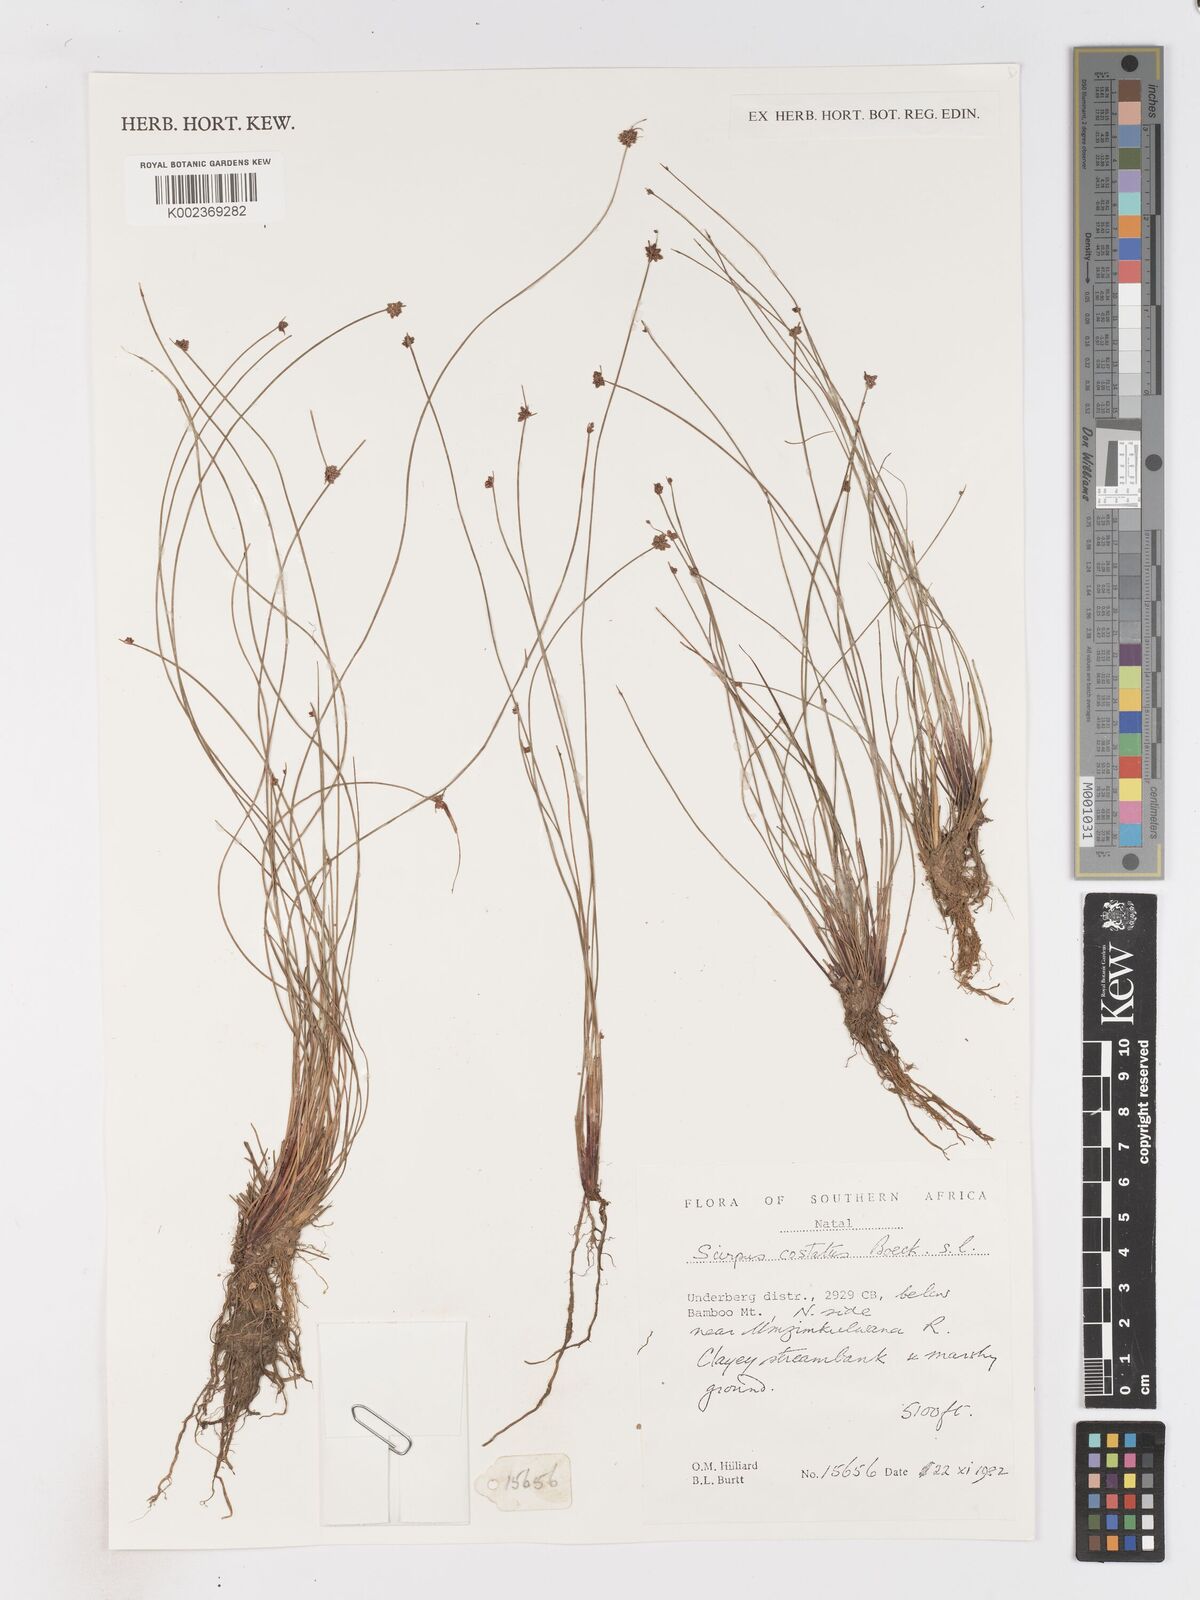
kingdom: Plantae
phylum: Tracheophyta
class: Liliopsida
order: Poales
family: Cyperaceae
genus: Isolepis
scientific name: Isolepis costata
